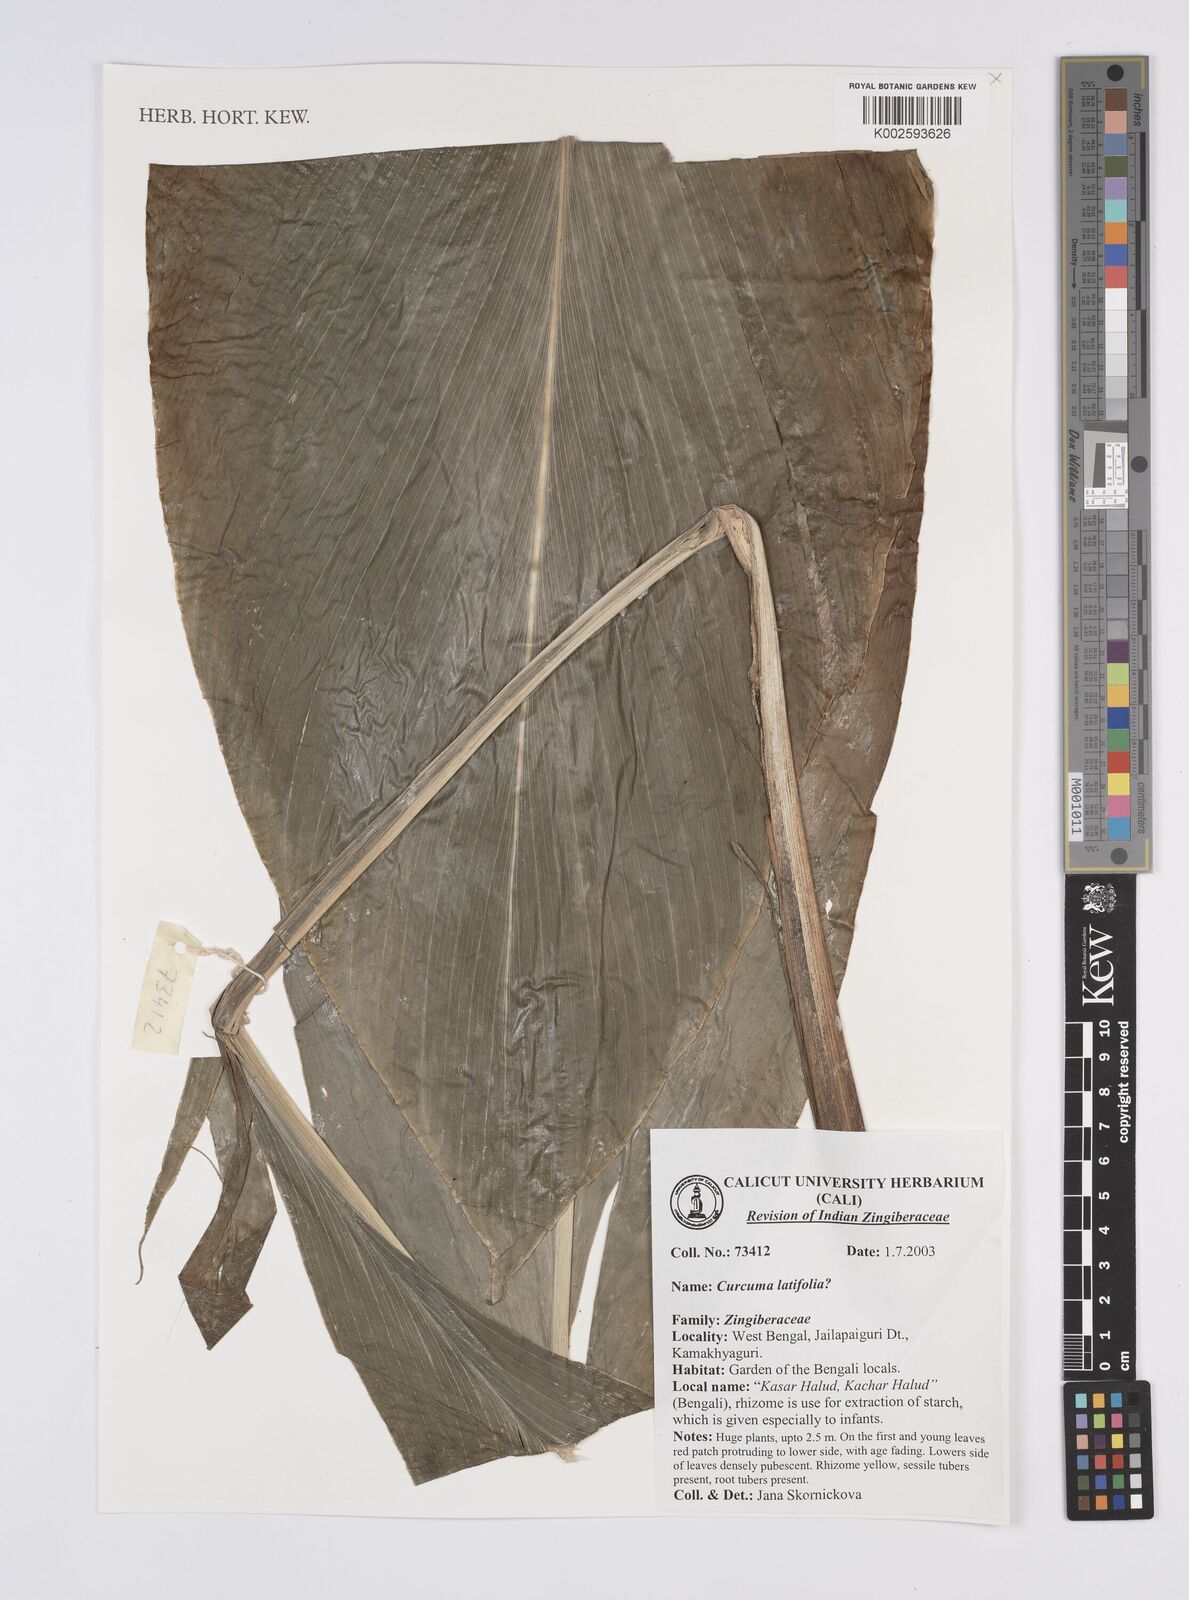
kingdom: Plantae
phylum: Tracheophyta
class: Liliopsida
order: Zingiberales
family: Zingiberaceae
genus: Curcuma
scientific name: Curcuma latifolia
